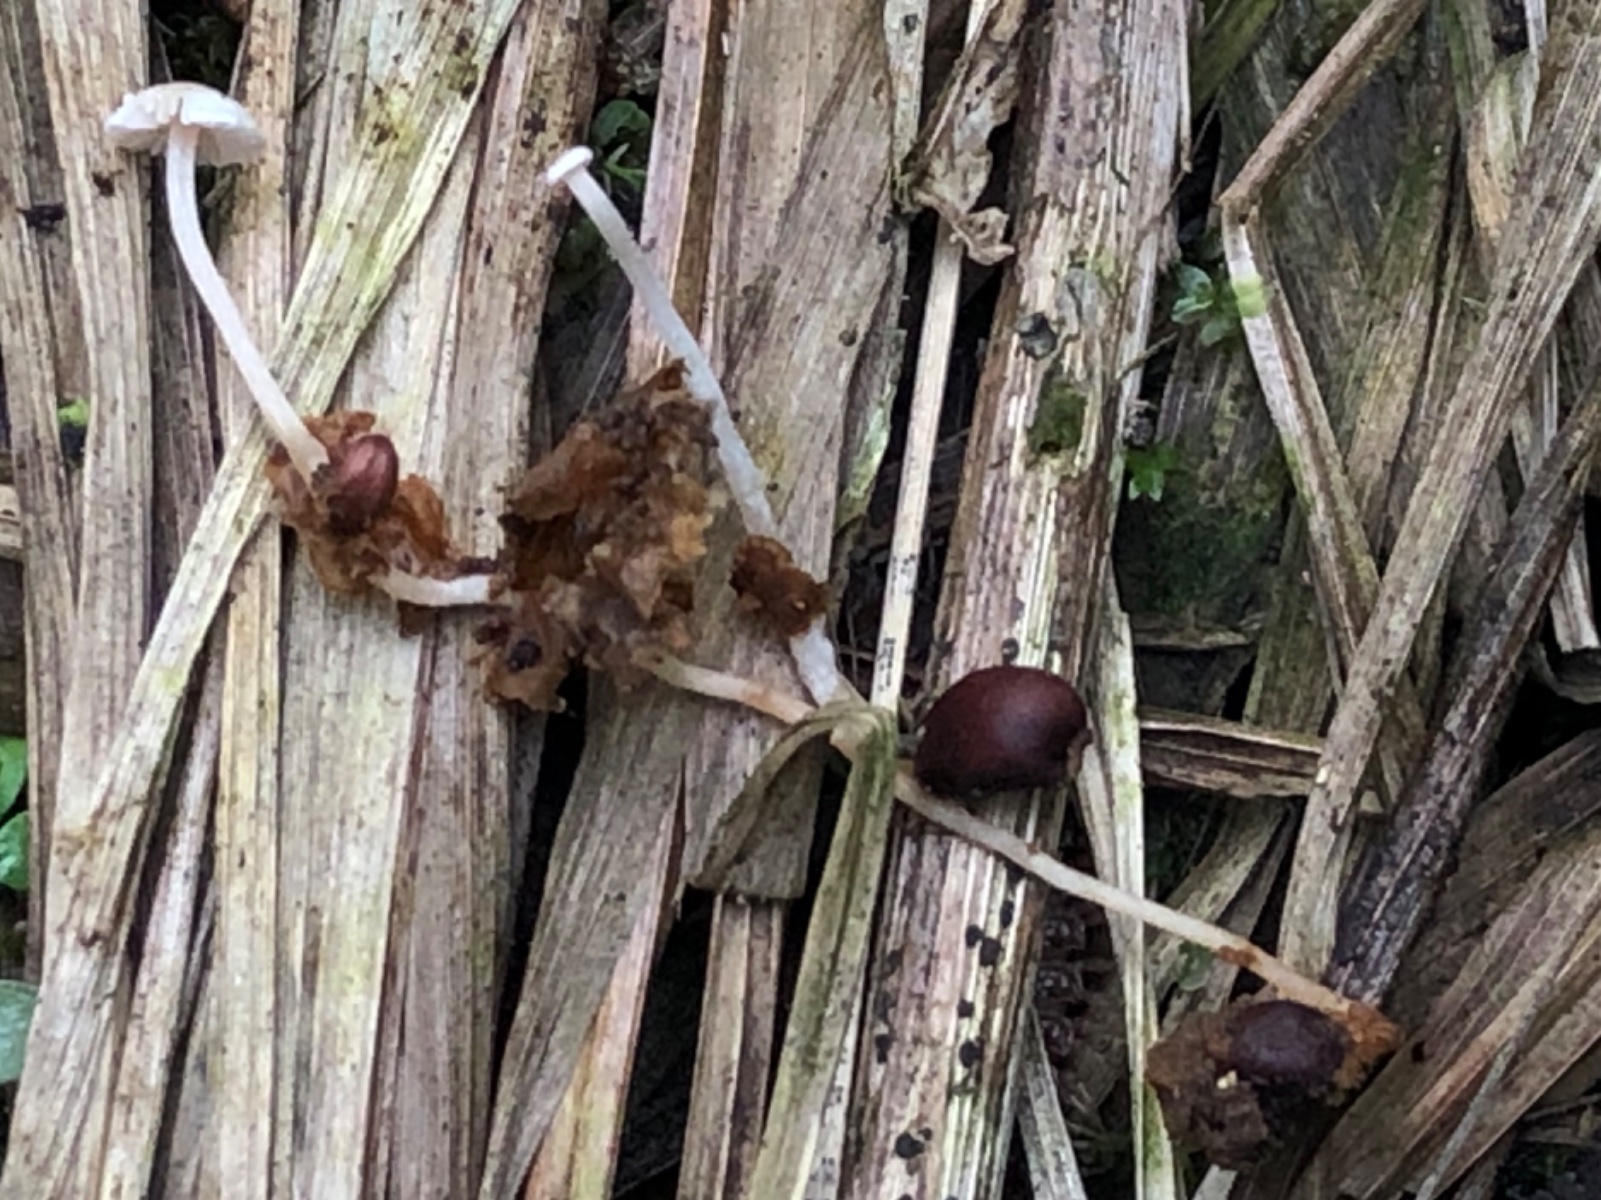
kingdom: Fungi
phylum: Basidiomycota
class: Agaricomycetes
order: Agaricales
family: Tricholomataceae
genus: Collybia
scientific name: Collybia tuberosa
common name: spidsknoldet lighat
